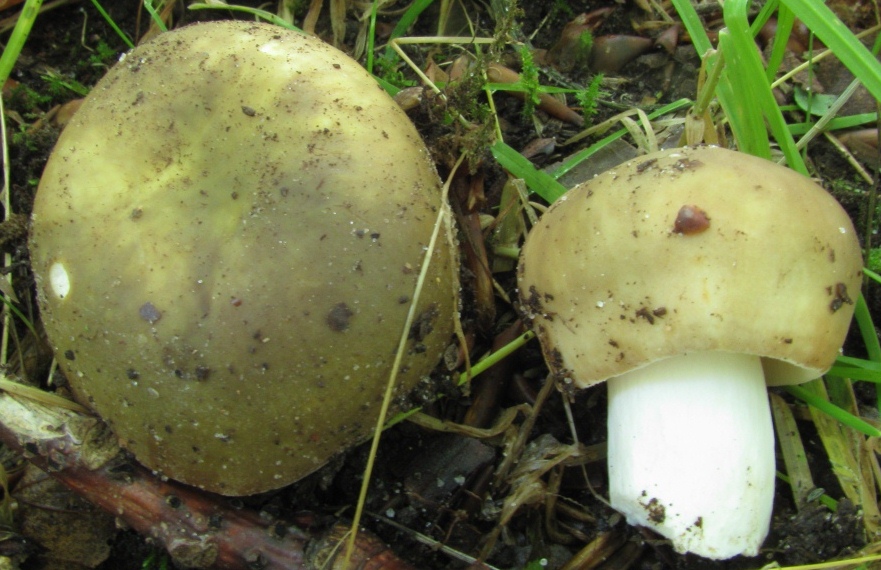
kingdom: Fungi
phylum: Basidiomycota
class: Agaricomycetes
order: Russulales
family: Russulaceae
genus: Russula
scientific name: Russula heterophylla
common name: gaffelbladet skørhat
